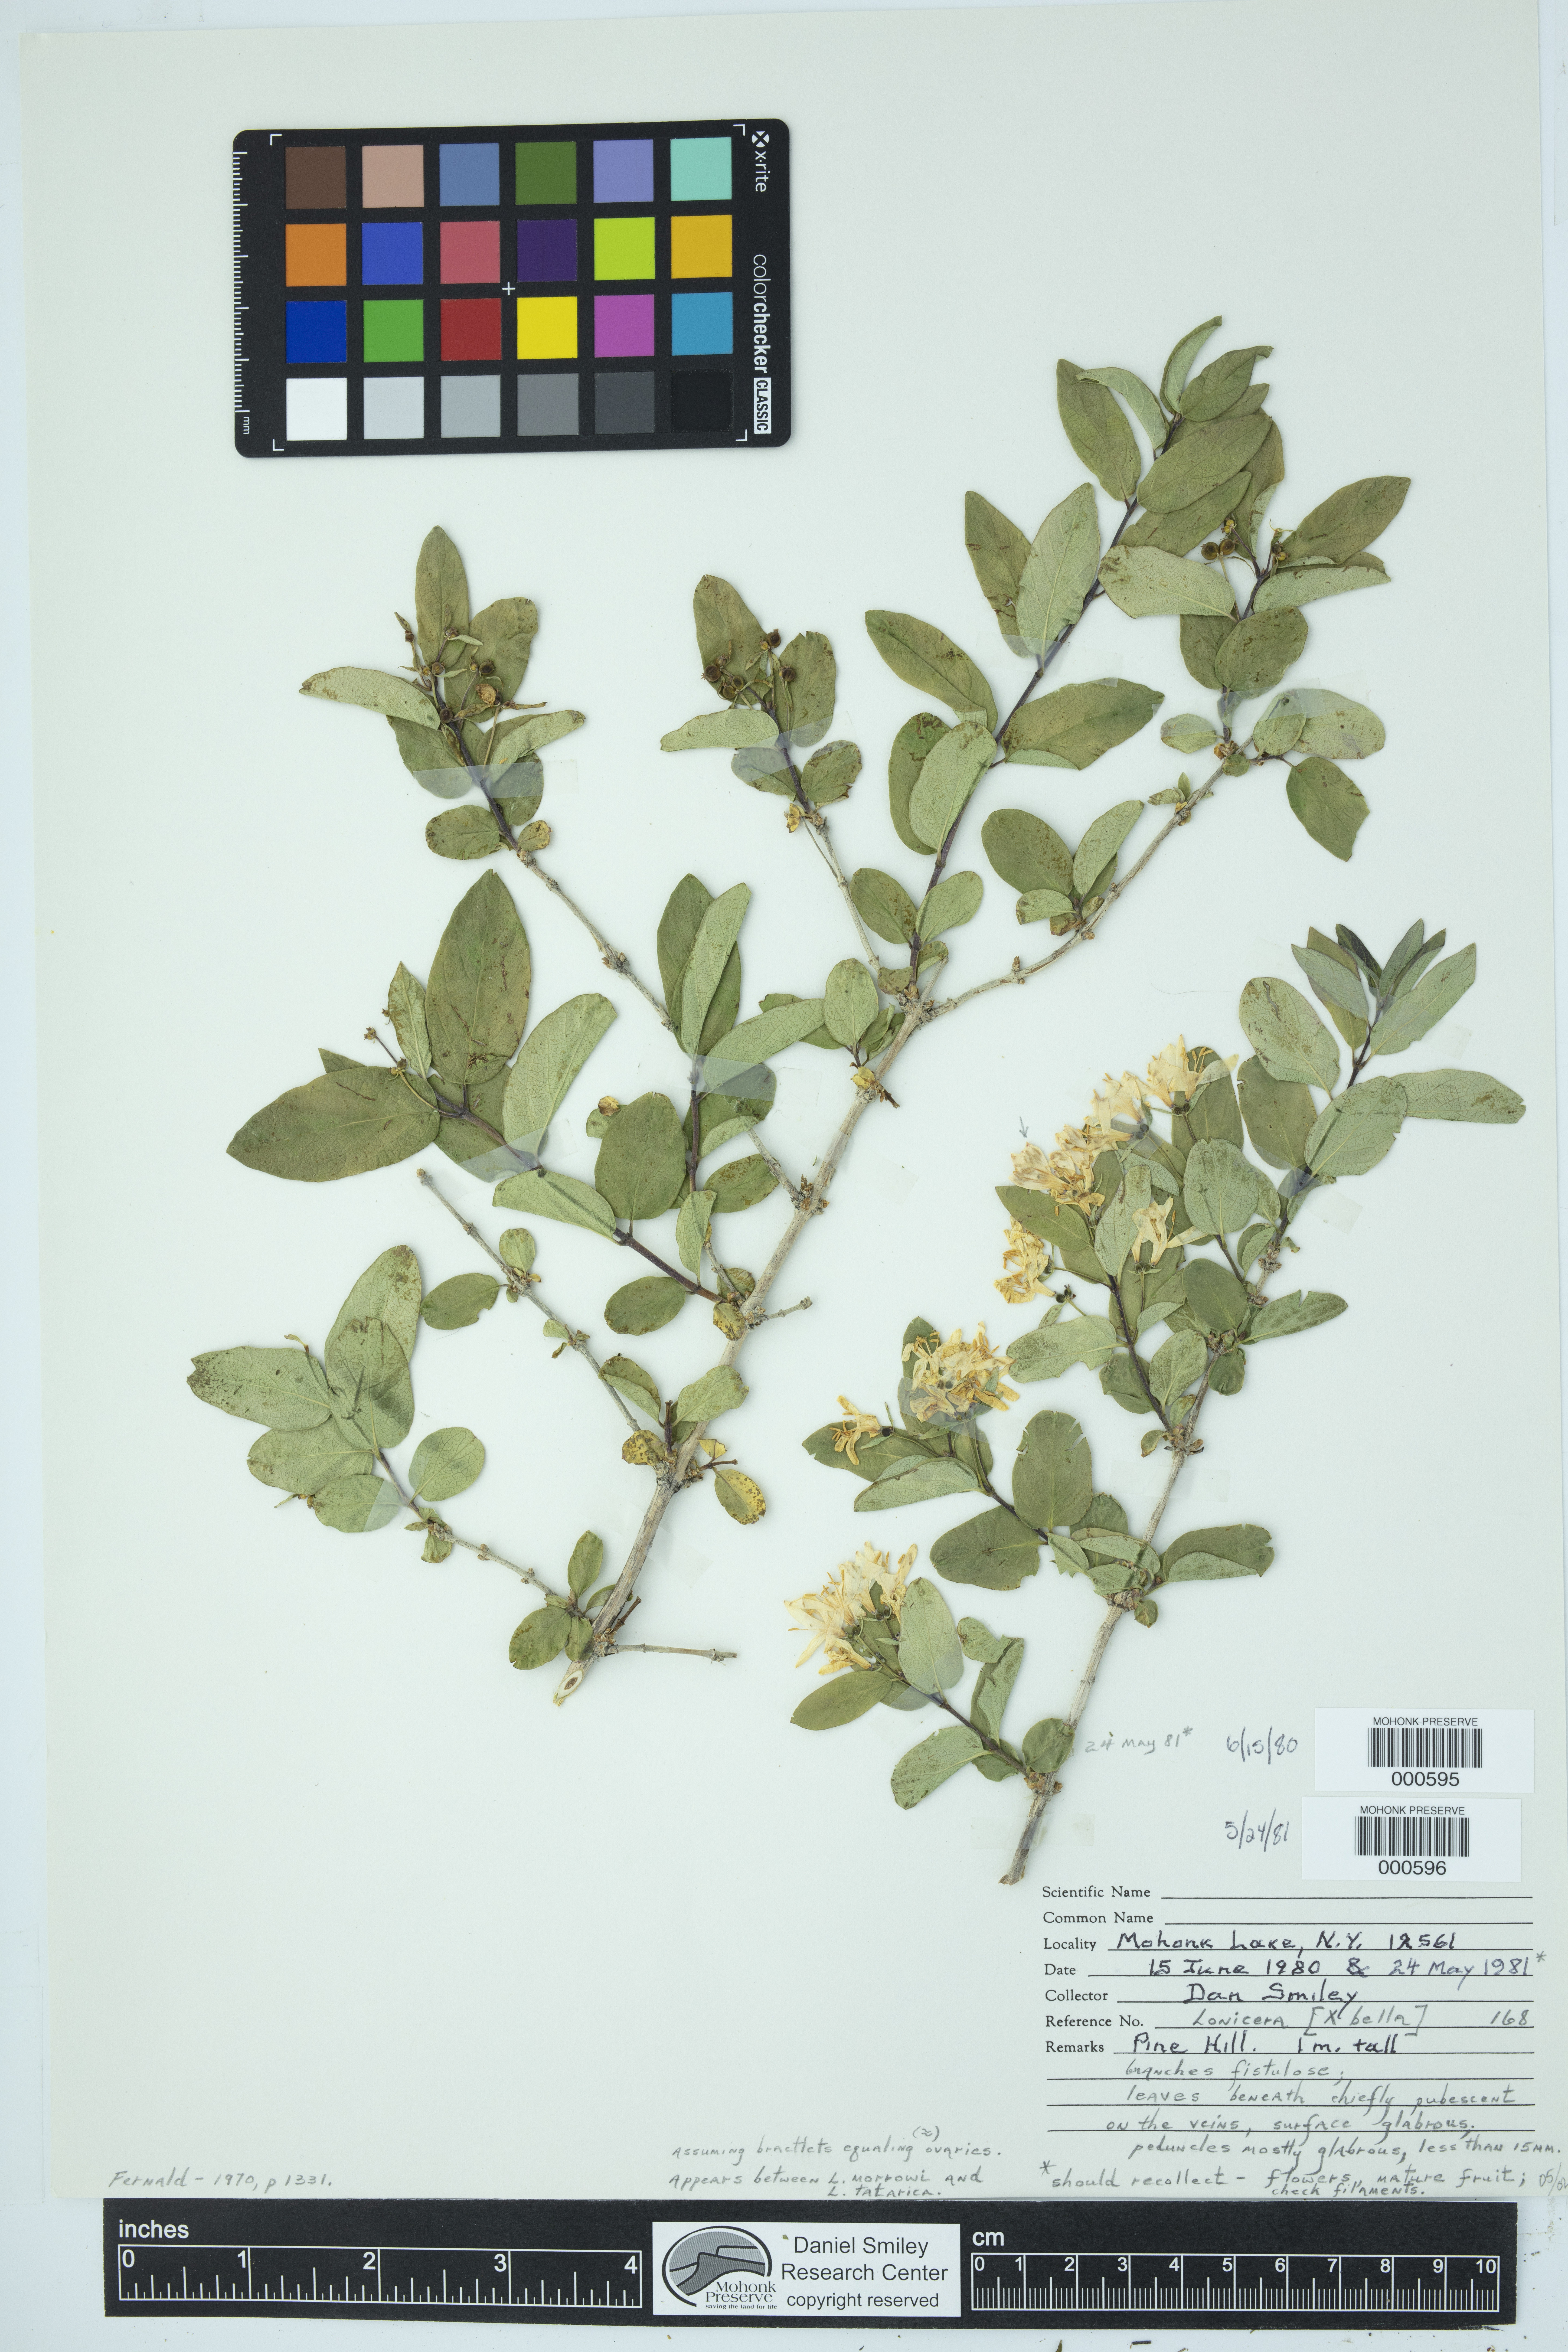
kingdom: Plantae
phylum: Tracheophyta
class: Magnoliopsida
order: Dipsacales
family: Caprifoliaceae
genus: Lonicera
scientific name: Lonicera bella
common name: Bell's honeysuckle
